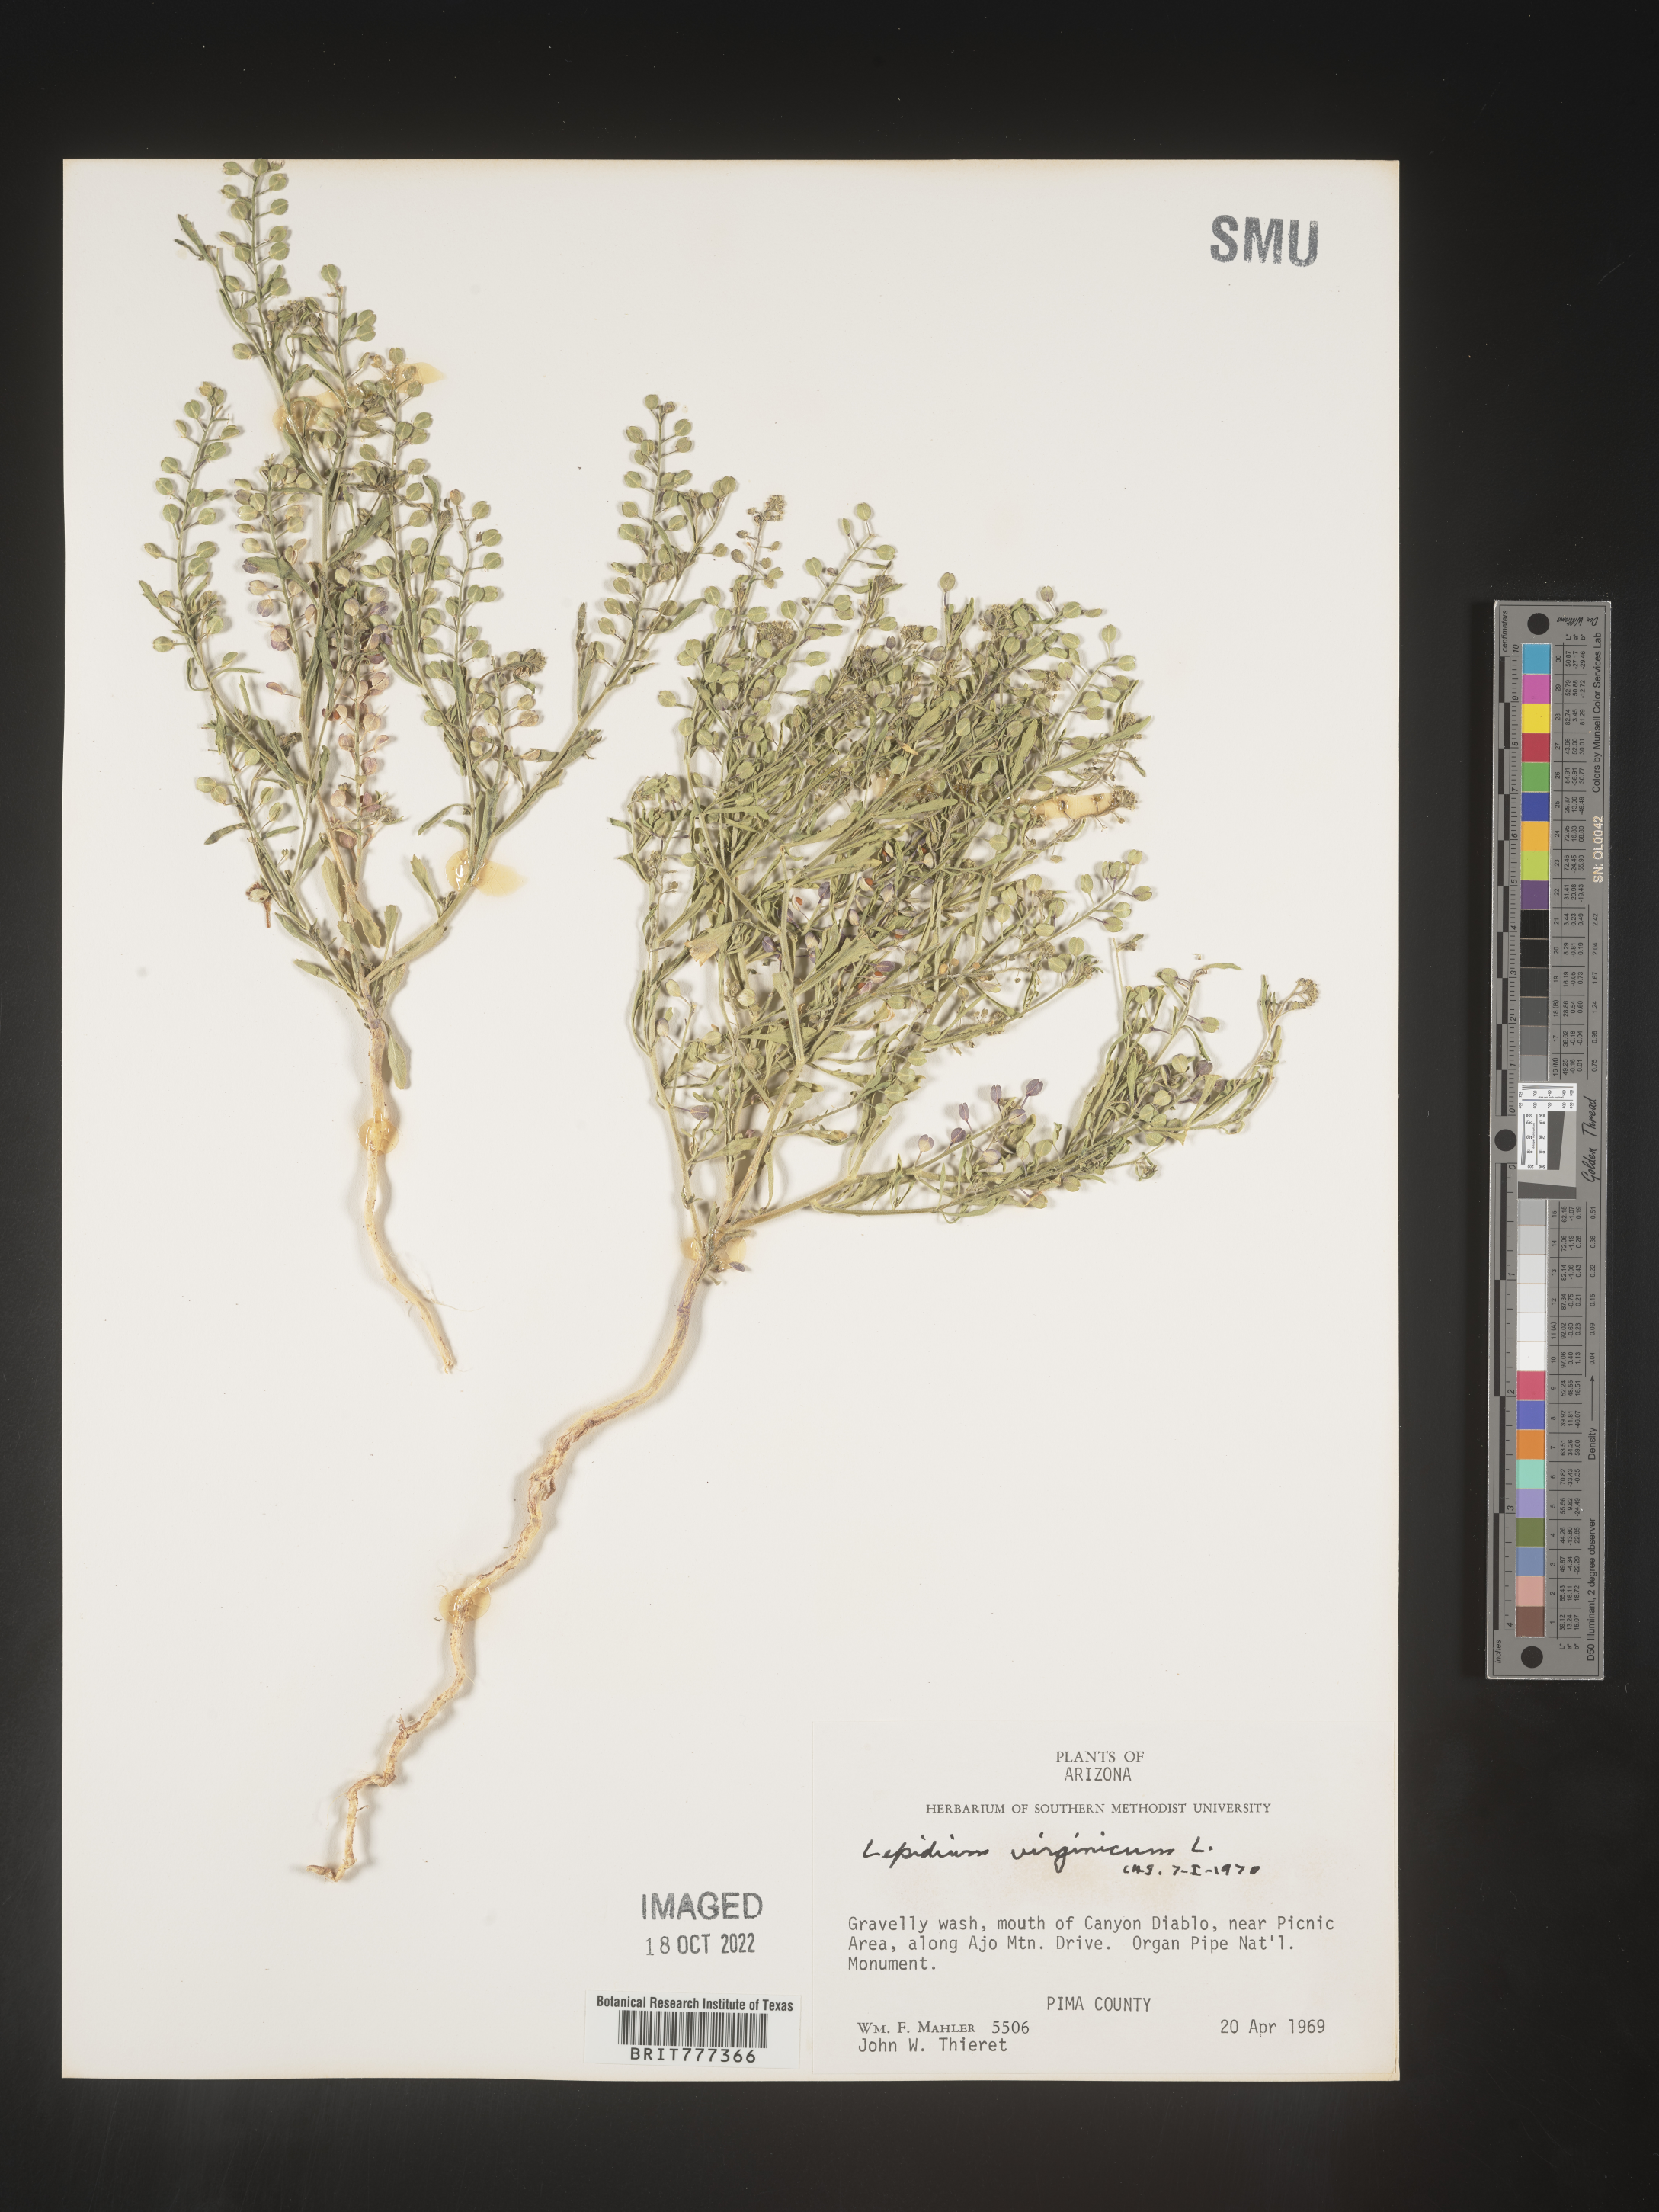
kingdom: Plantae
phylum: Tracheophyta
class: Magnoliopsida
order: Brassicales
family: Brassicaceae
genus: Lepidium
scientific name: Lepidium virginicum
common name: Least pepperwort
